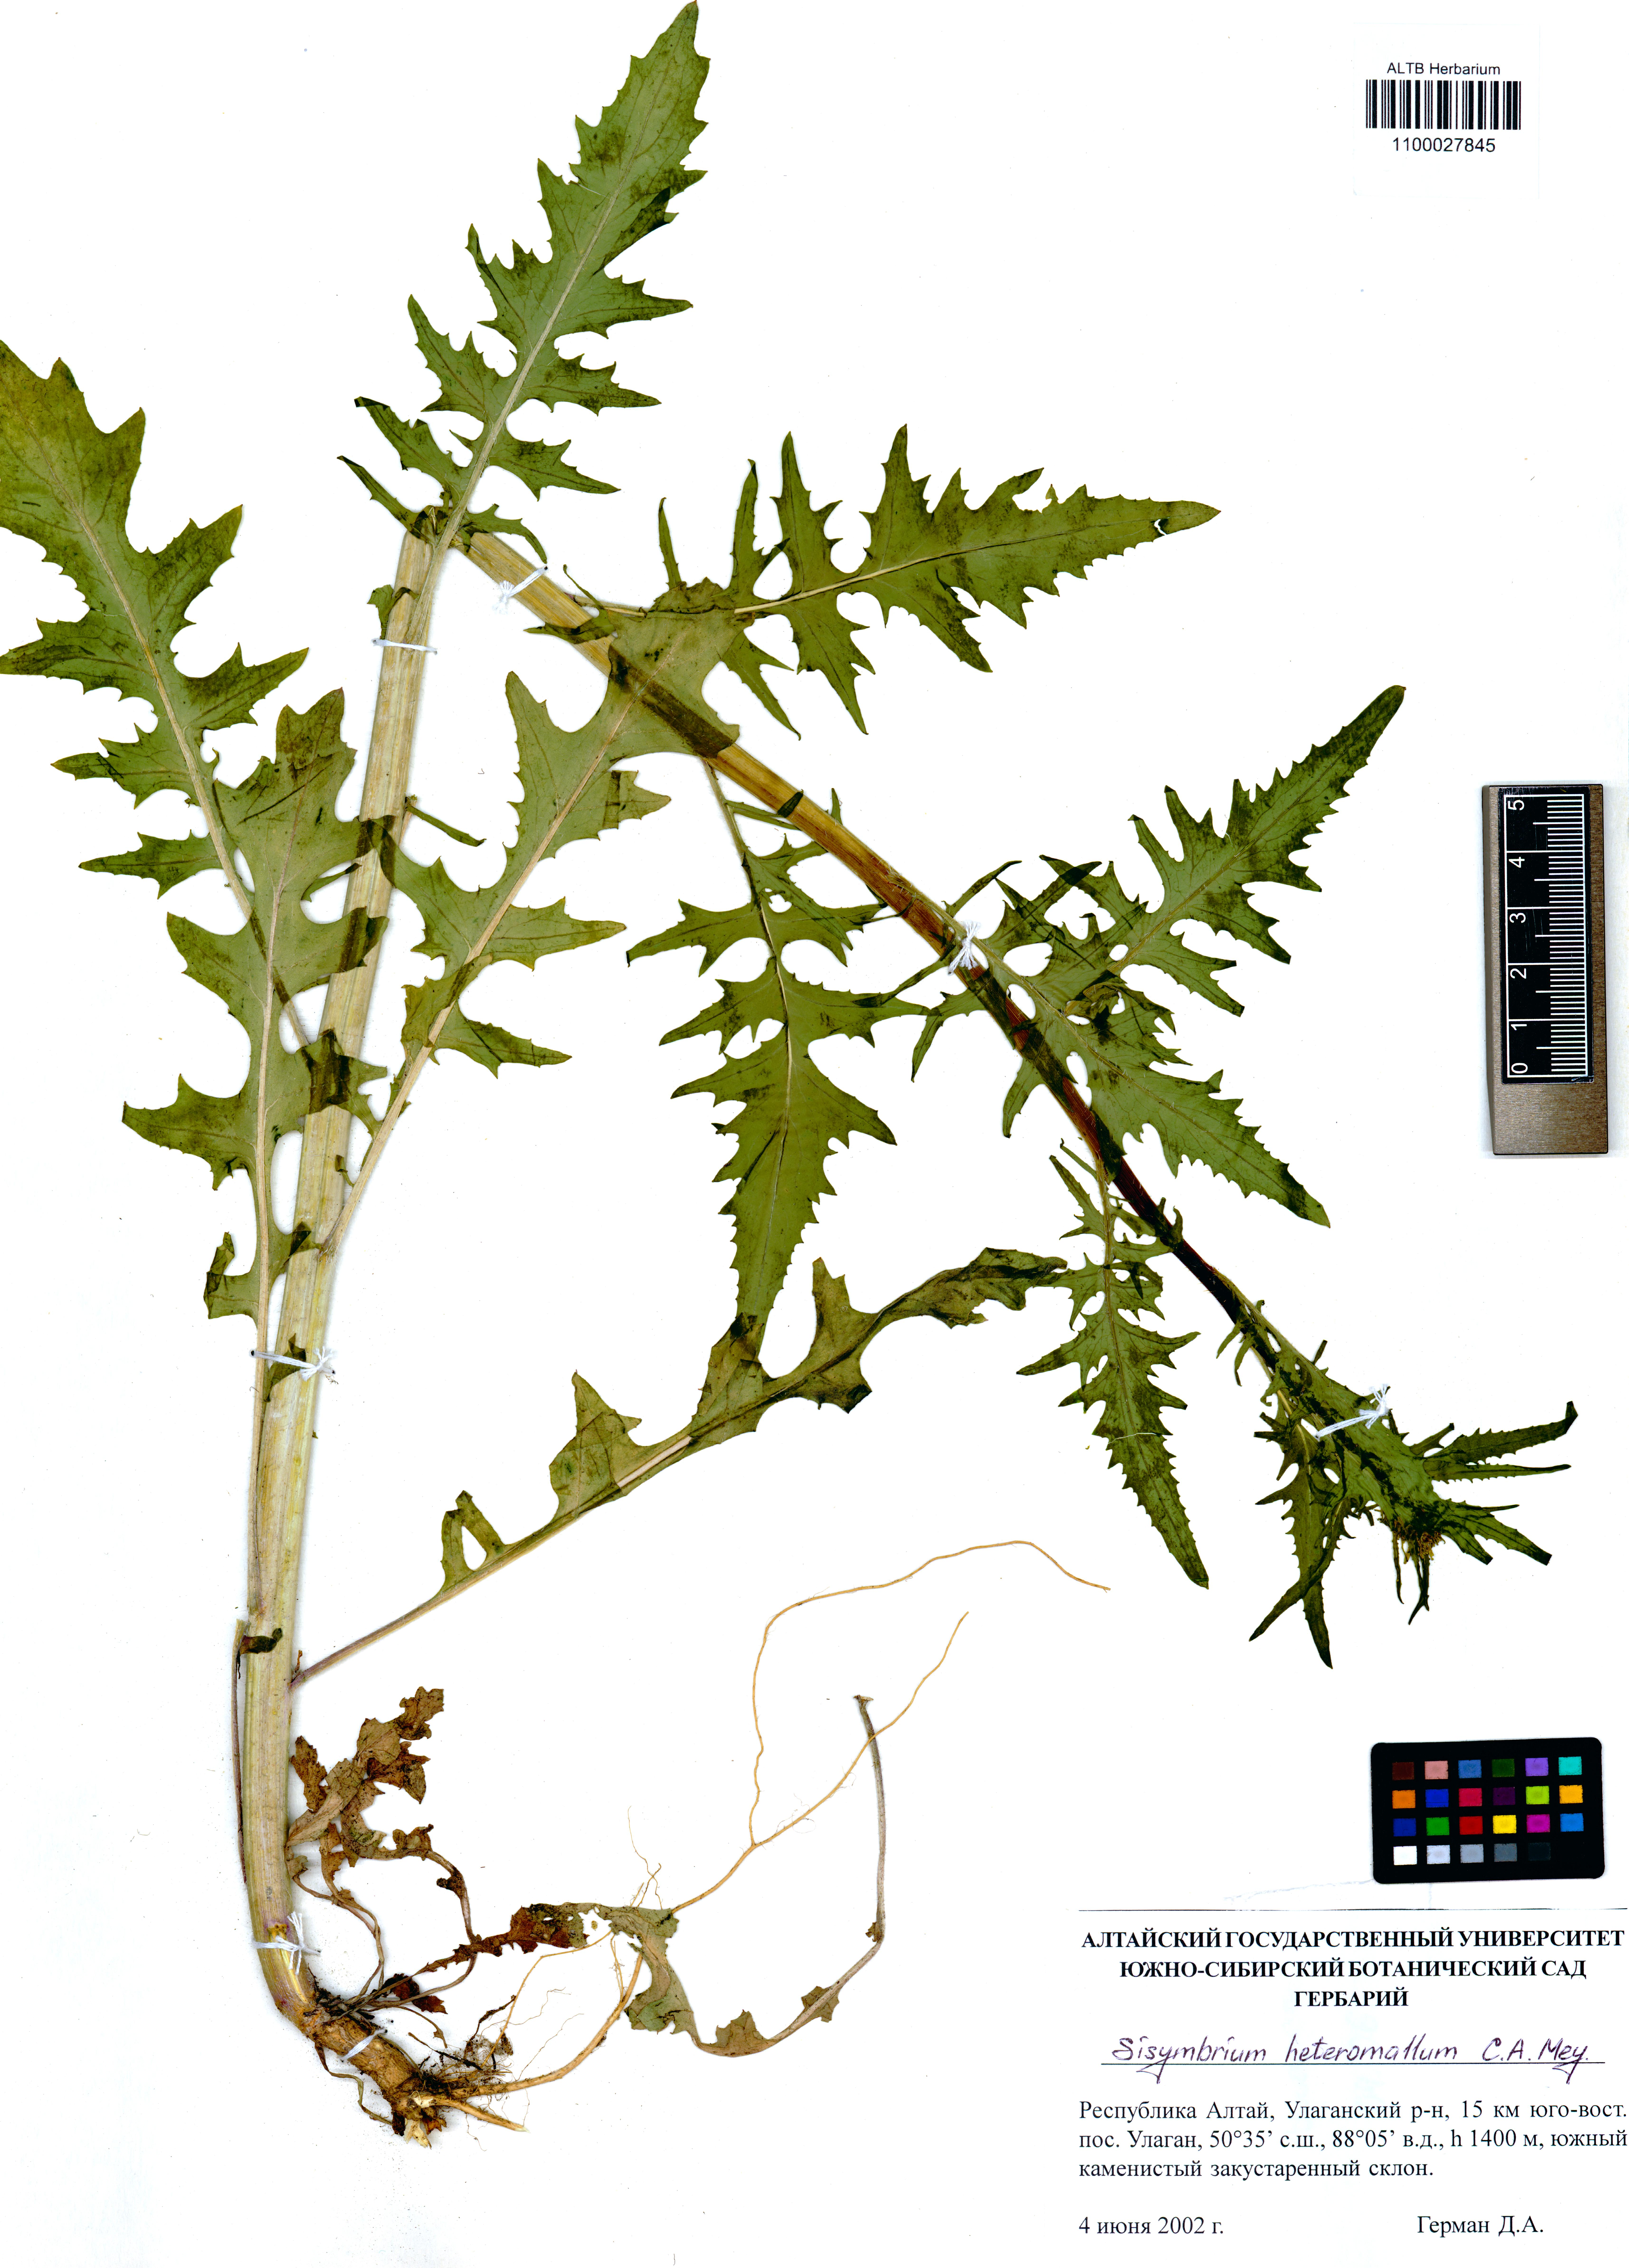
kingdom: Plantae
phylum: Tracheophyta
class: Magnoliopsida
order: Brassicales
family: Brassicaceae
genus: Sisymbrium
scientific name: Sisymbrium heteromallum
